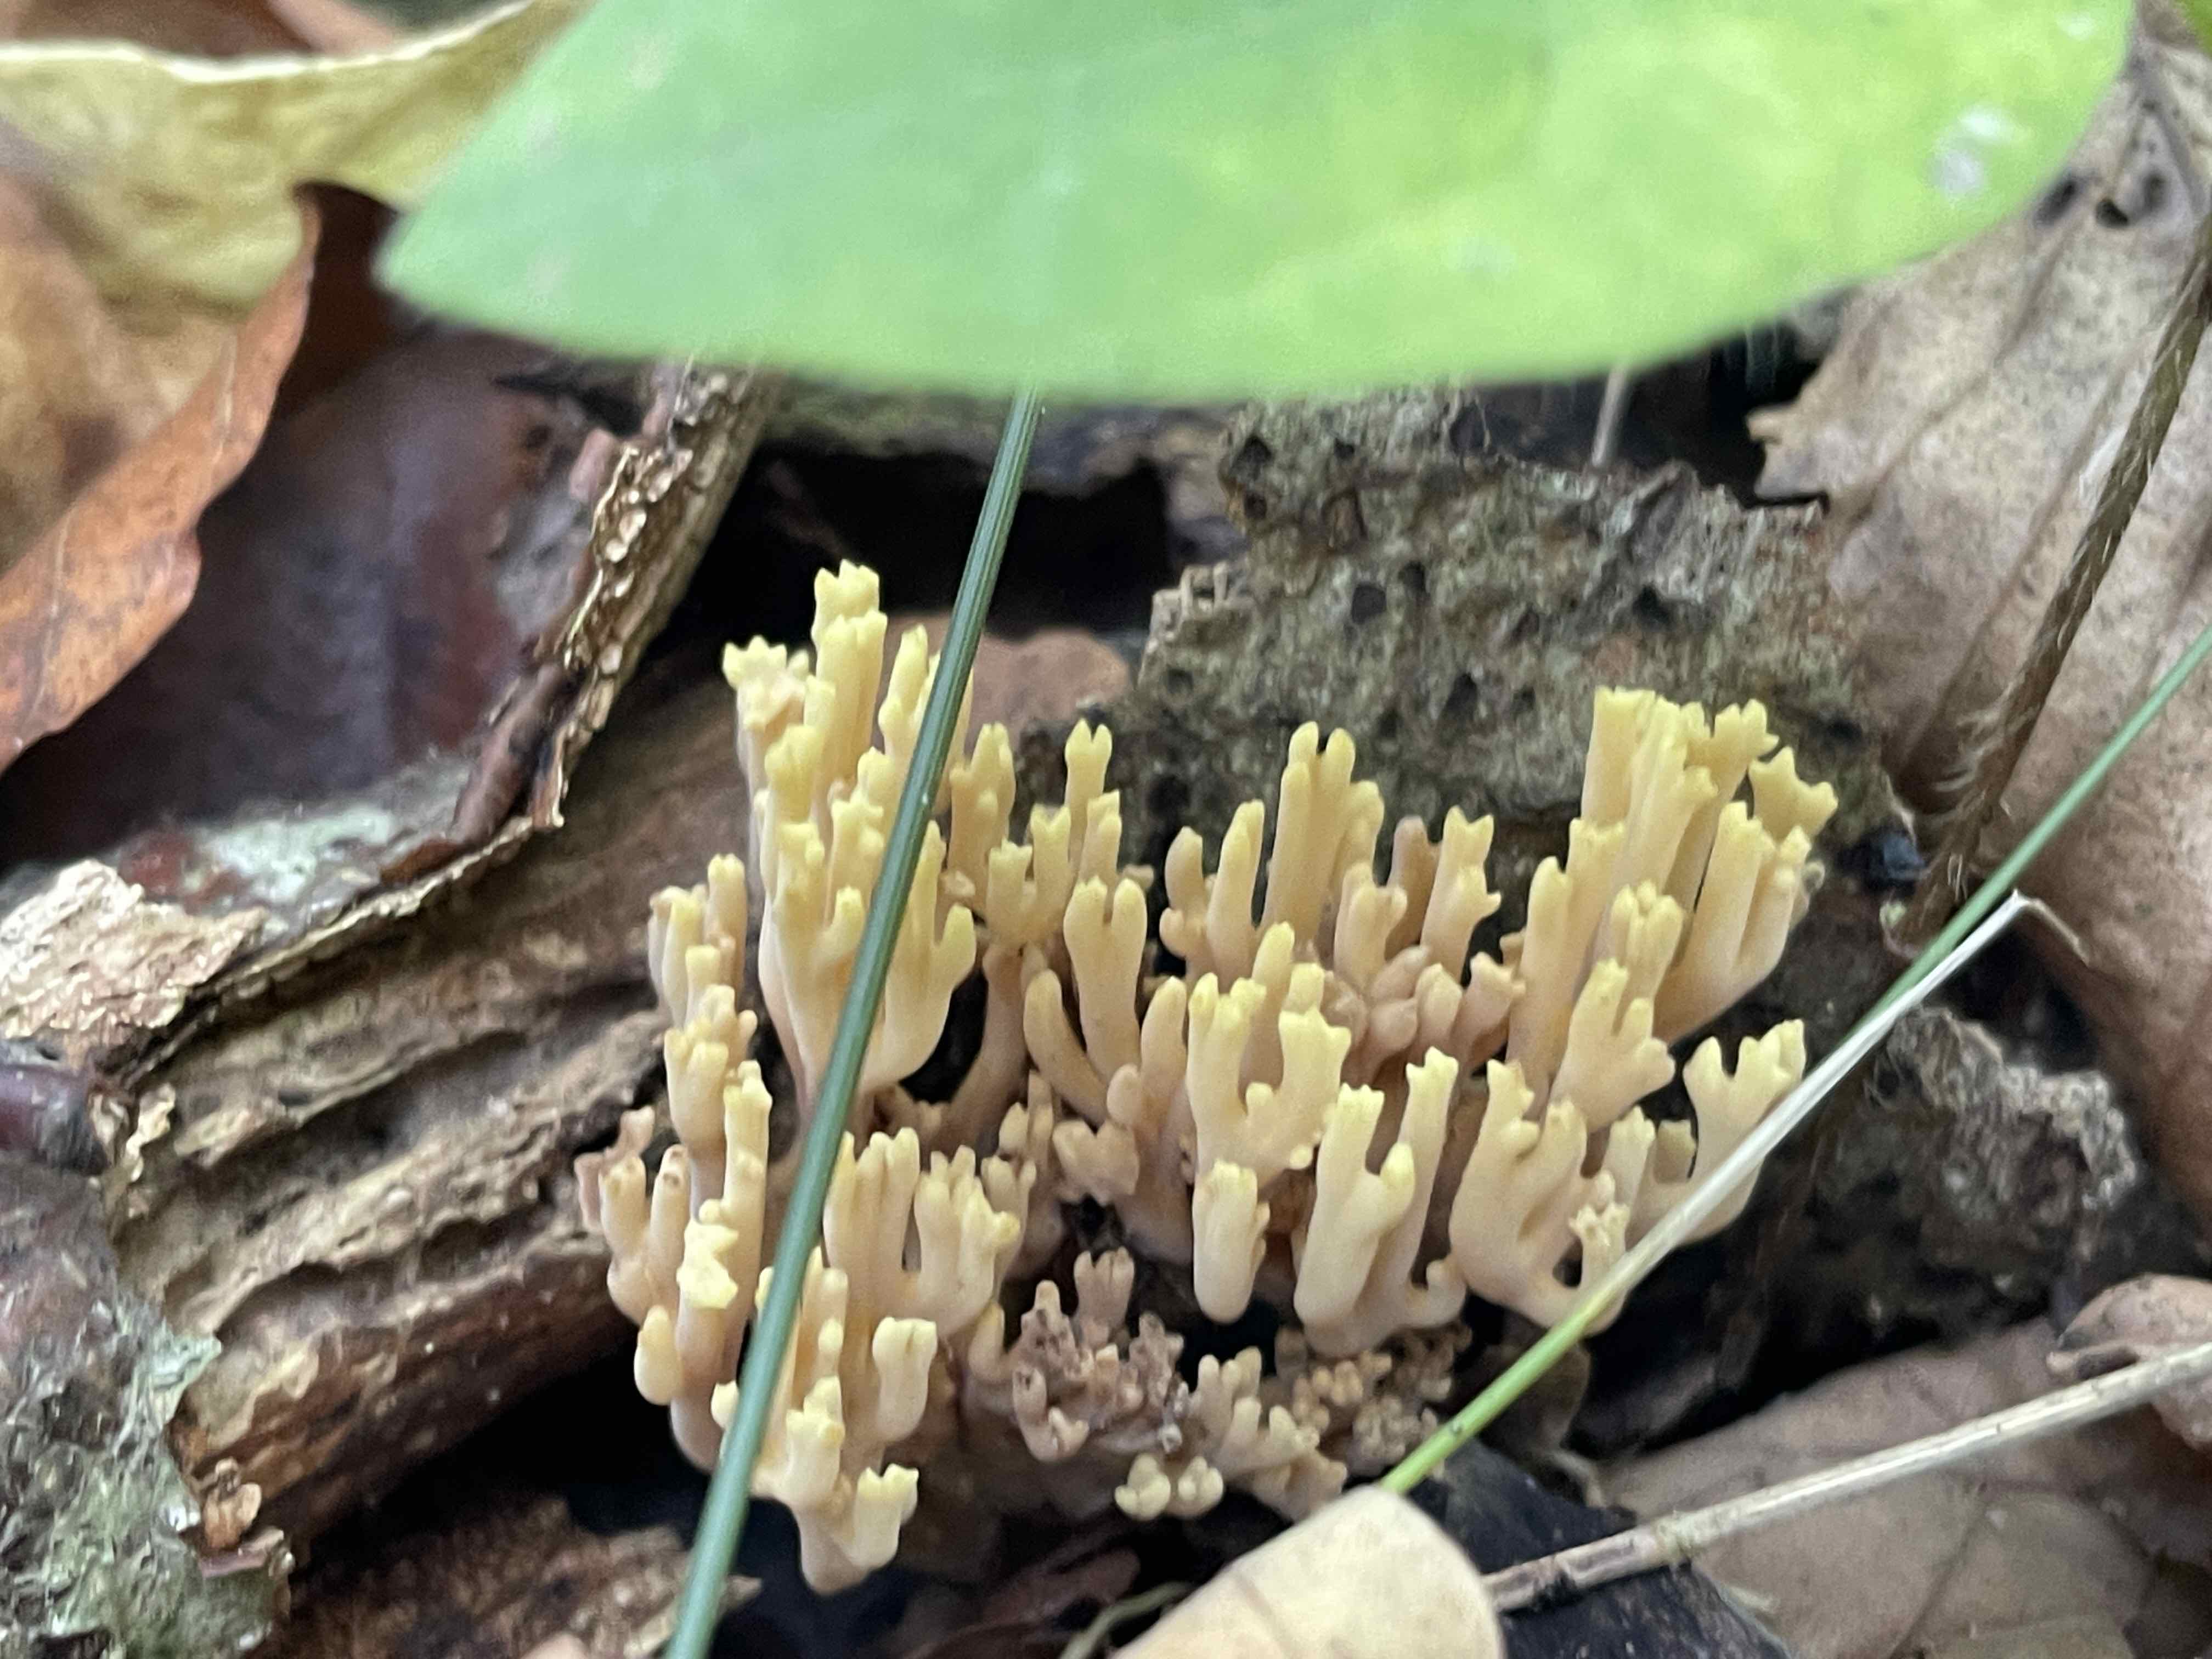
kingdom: Fungi
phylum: Basidiomycota
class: Agaricomycetes
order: Gomphales
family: Gomphaceae
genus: Ramaria
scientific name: Ramaria stricta
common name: rank koralsvamp
